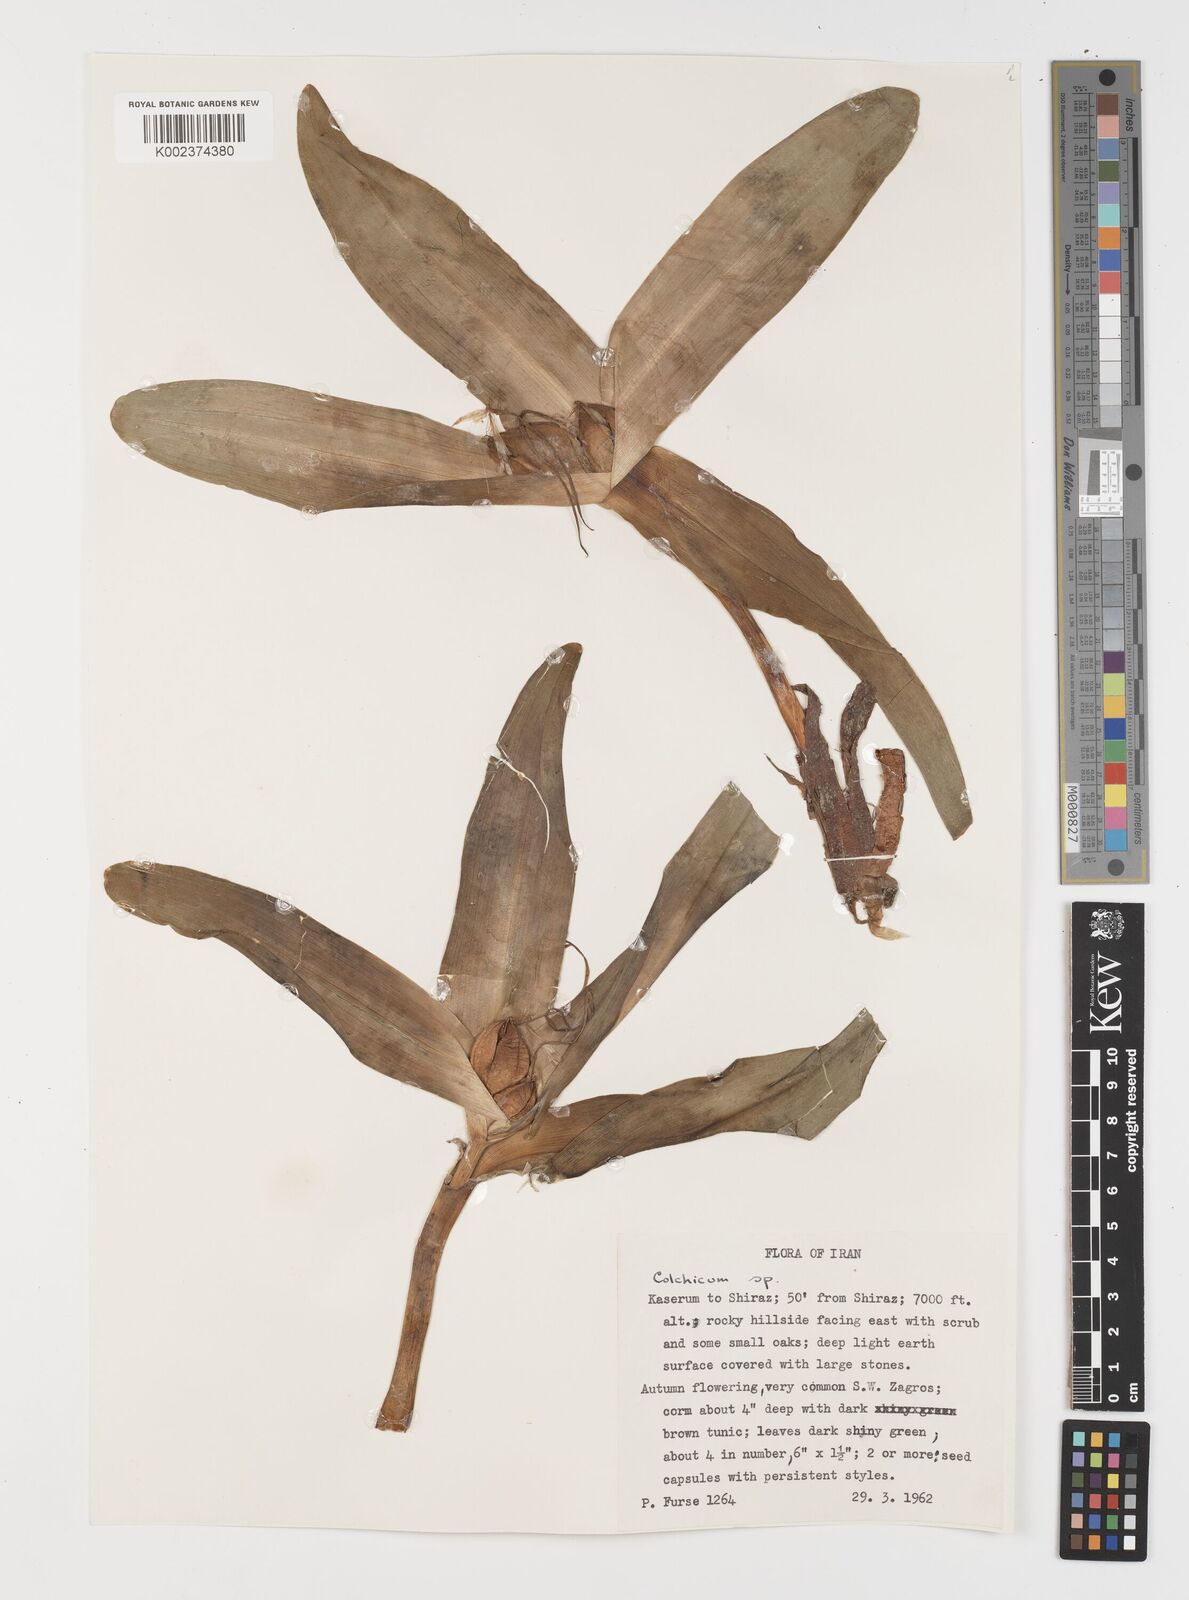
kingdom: Plantae
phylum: Tracheophyta
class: Liliopsida
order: Liliales
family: Colchicaceae
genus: Colchicum
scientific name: Colchicum
